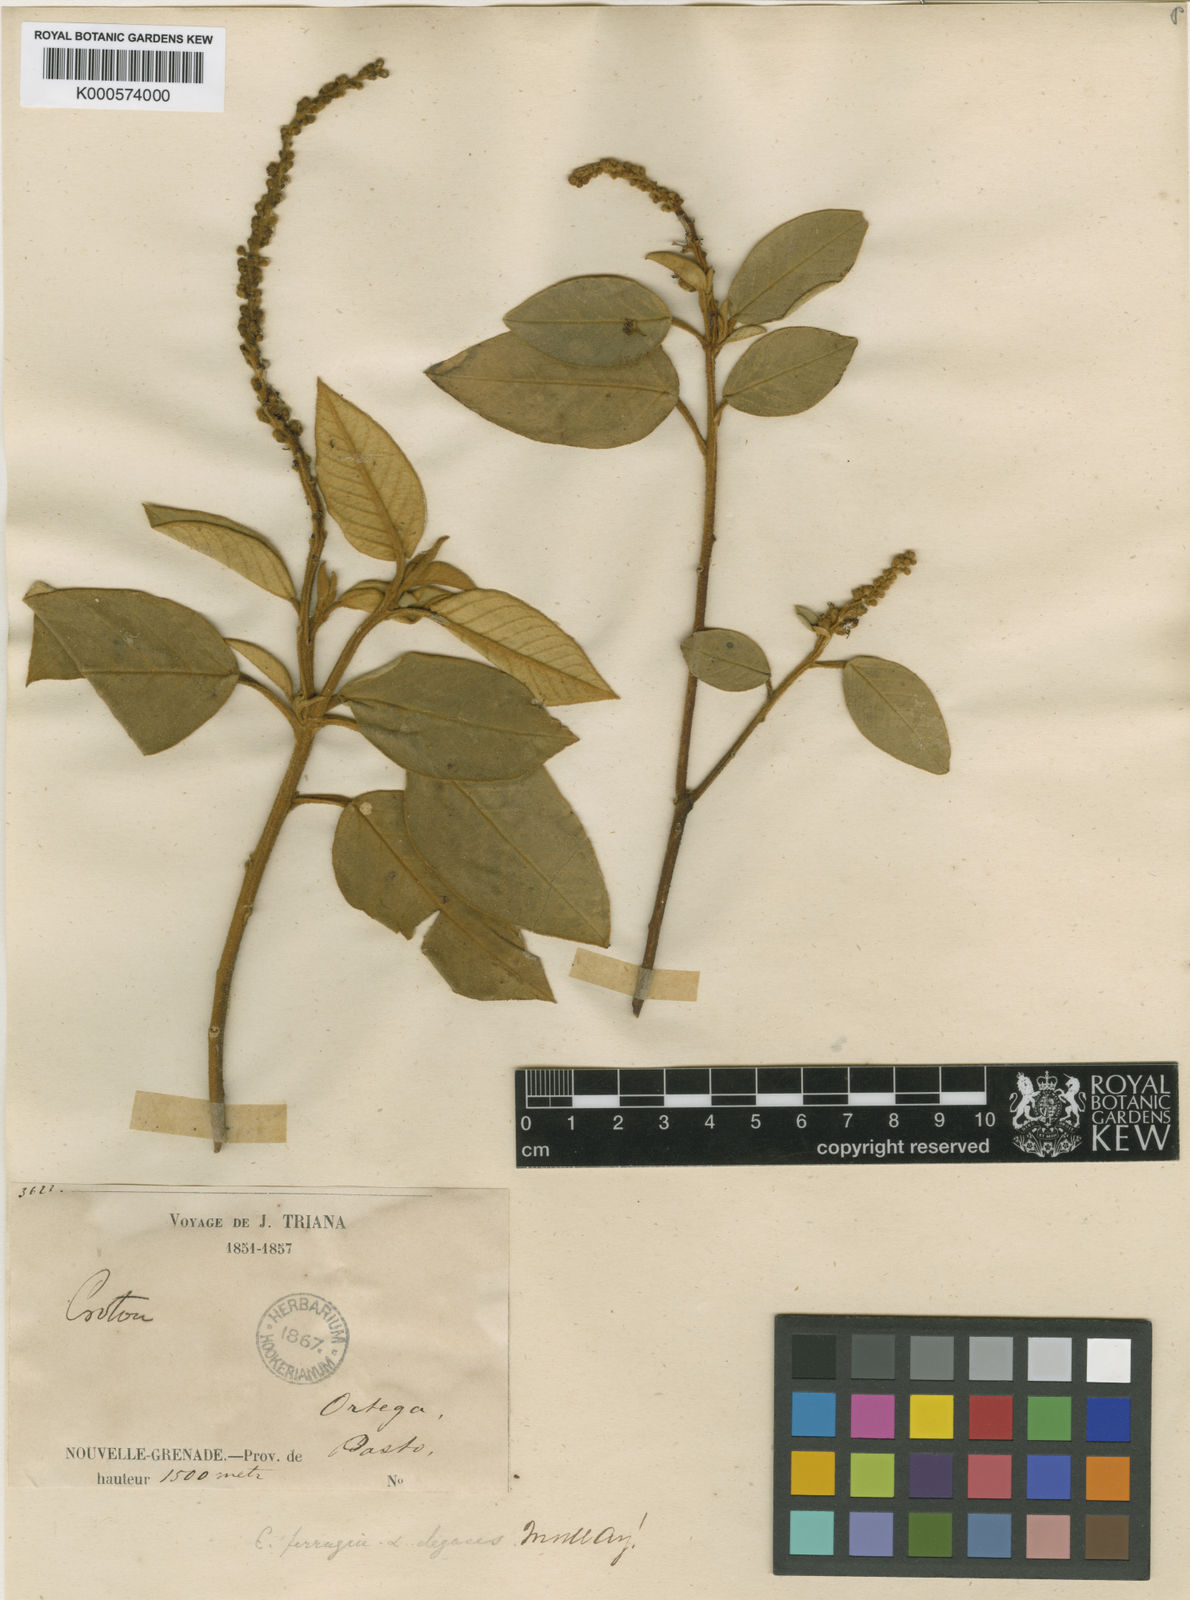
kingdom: Plantae
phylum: Tracheophyta
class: Magnoliopsida
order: Malpighiales
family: Euphorbiaceae
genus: Croton
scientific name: Croton ferrugineus
